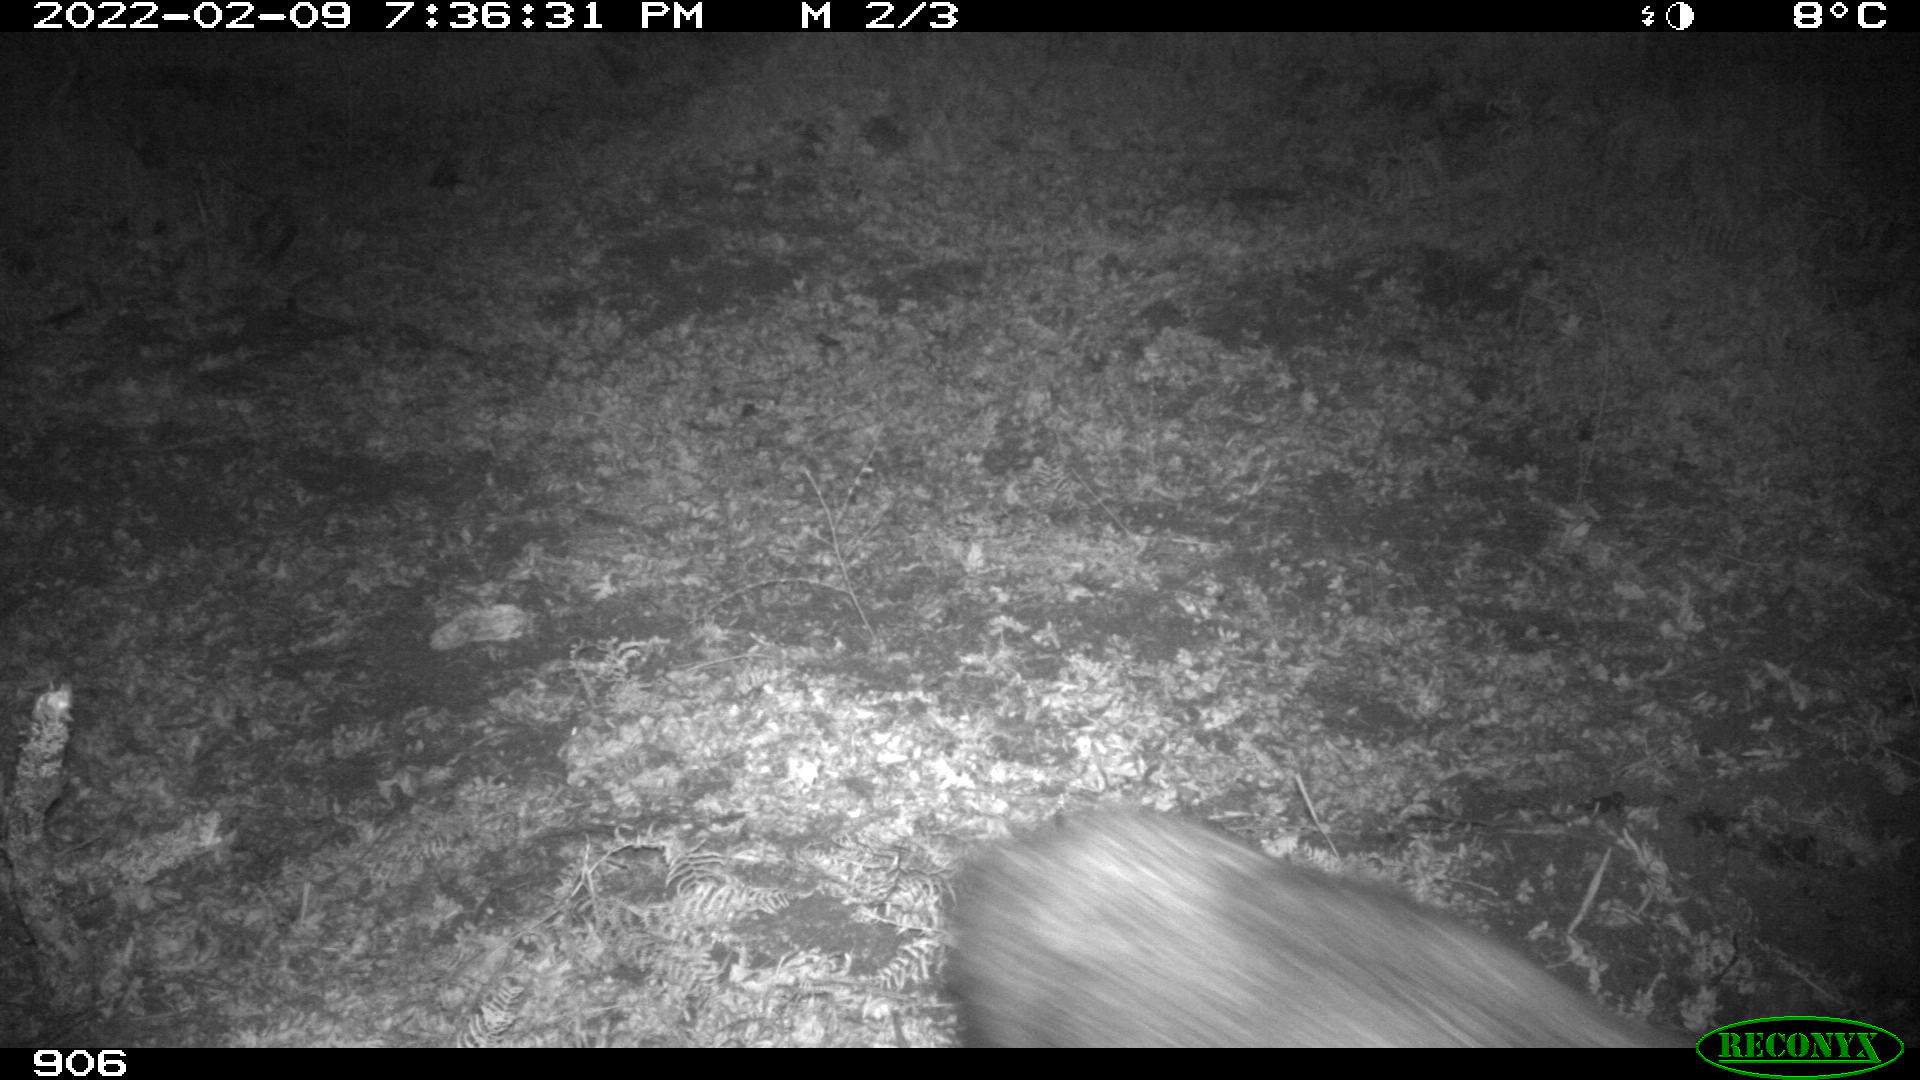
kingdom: Animalia
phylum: Chordata
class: Mammalia
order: Artiodactyla
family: Suidae
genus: Sus
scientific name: Sus scrofa
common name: Wild boar
